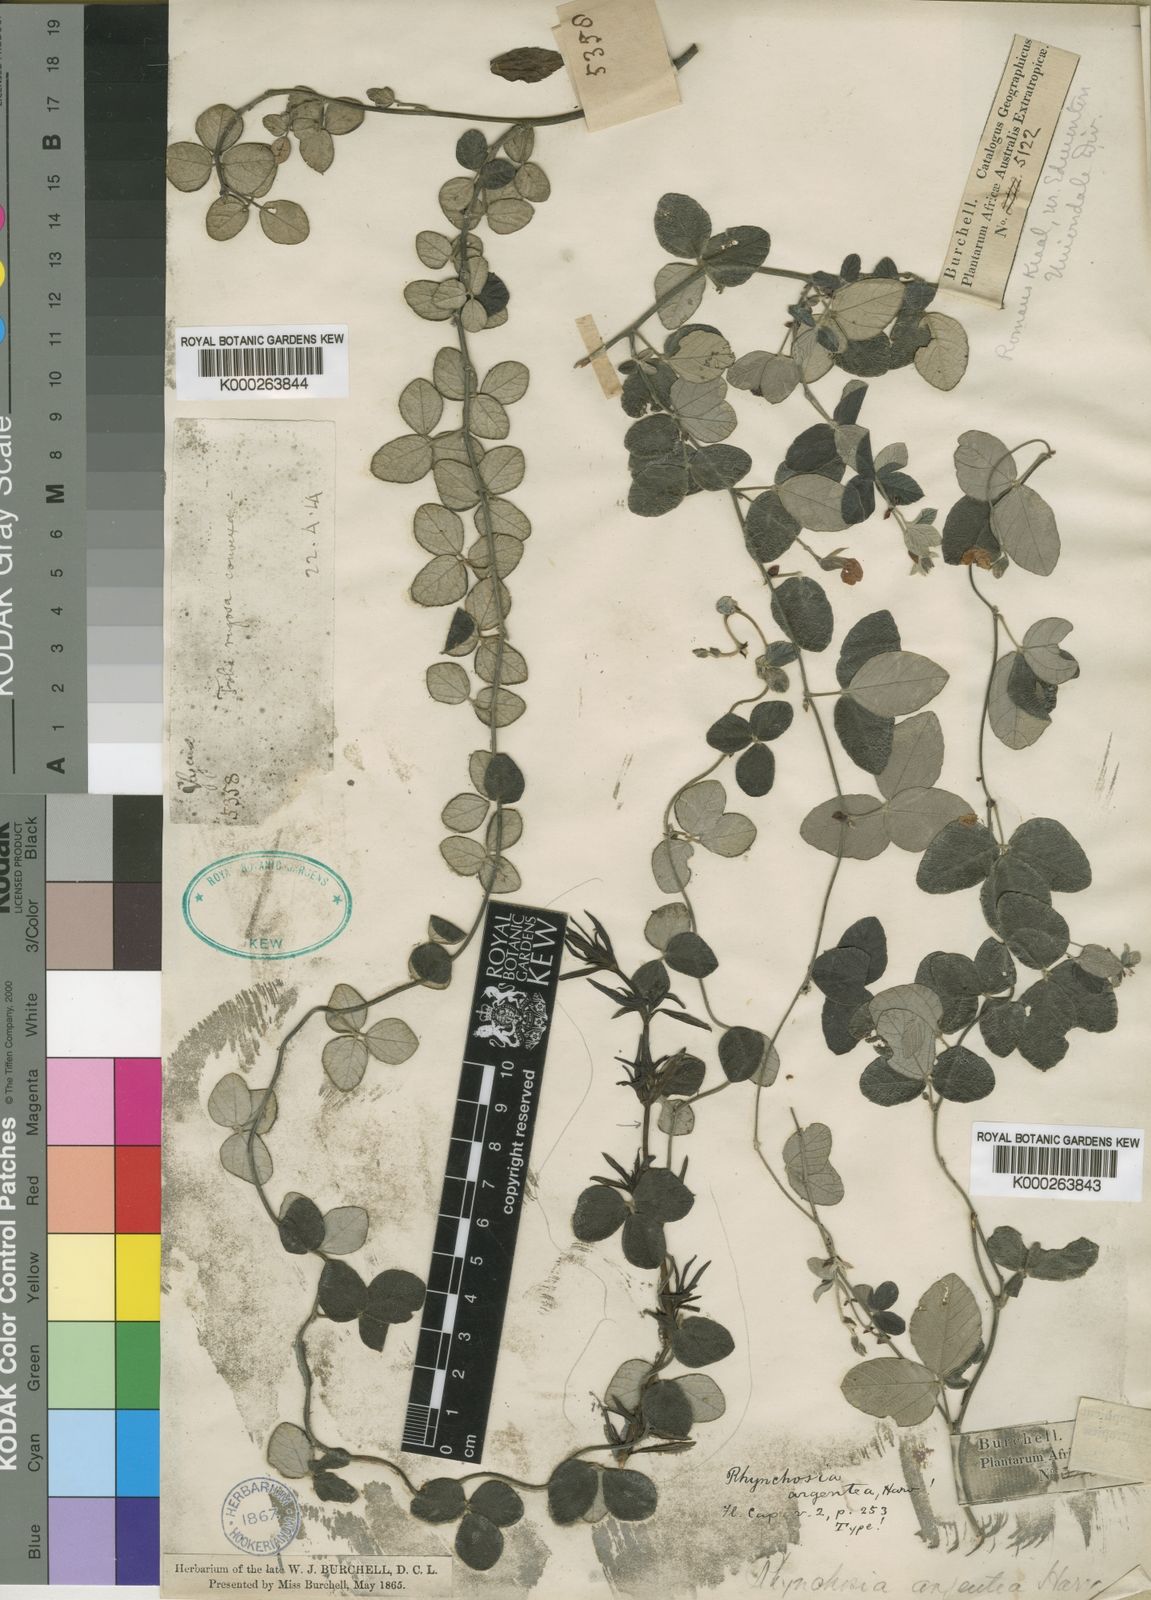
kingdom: Plantae
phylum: Tracheophyta
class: Magnoliopsida
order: Fabales
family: Fabaceae
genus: Rhynchosia
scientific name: Rhynchosia argentea
